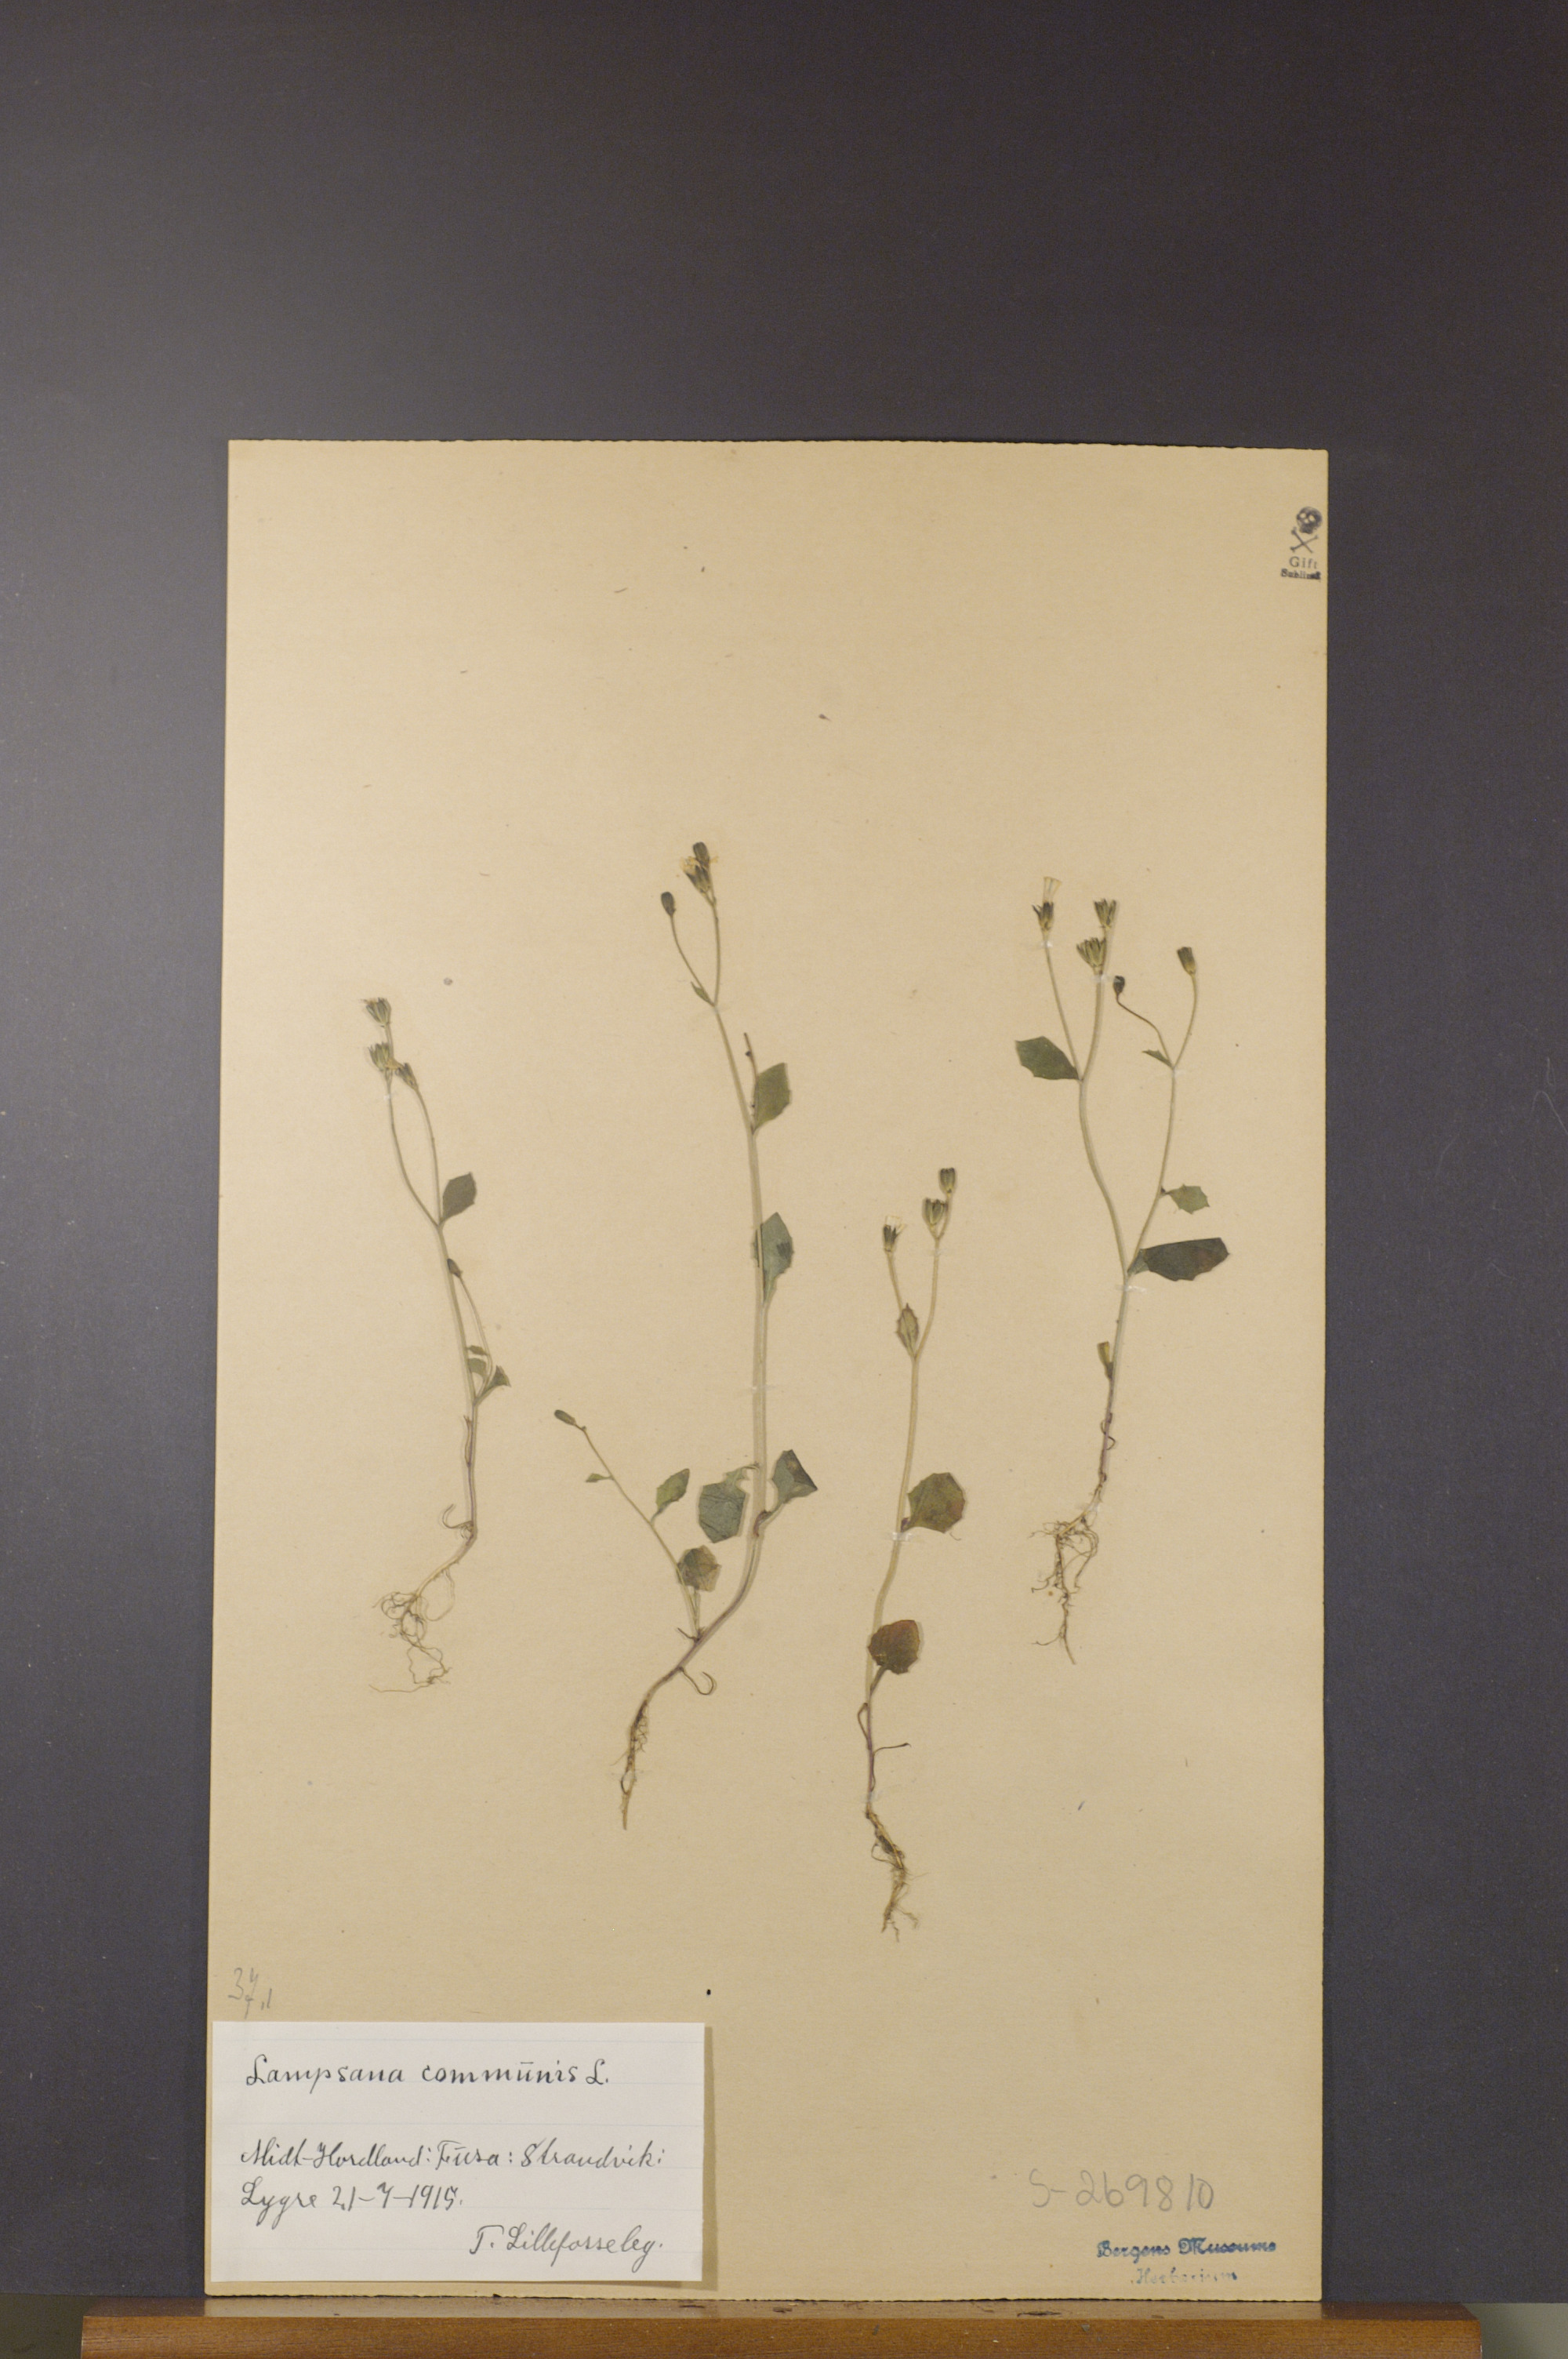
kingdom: Plantae
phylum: Tracheophyta
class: Magnoliopsida
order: Asterales
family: Asteraceae
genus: Lapsana
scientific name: Lapsana communis
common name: Nipplewort
